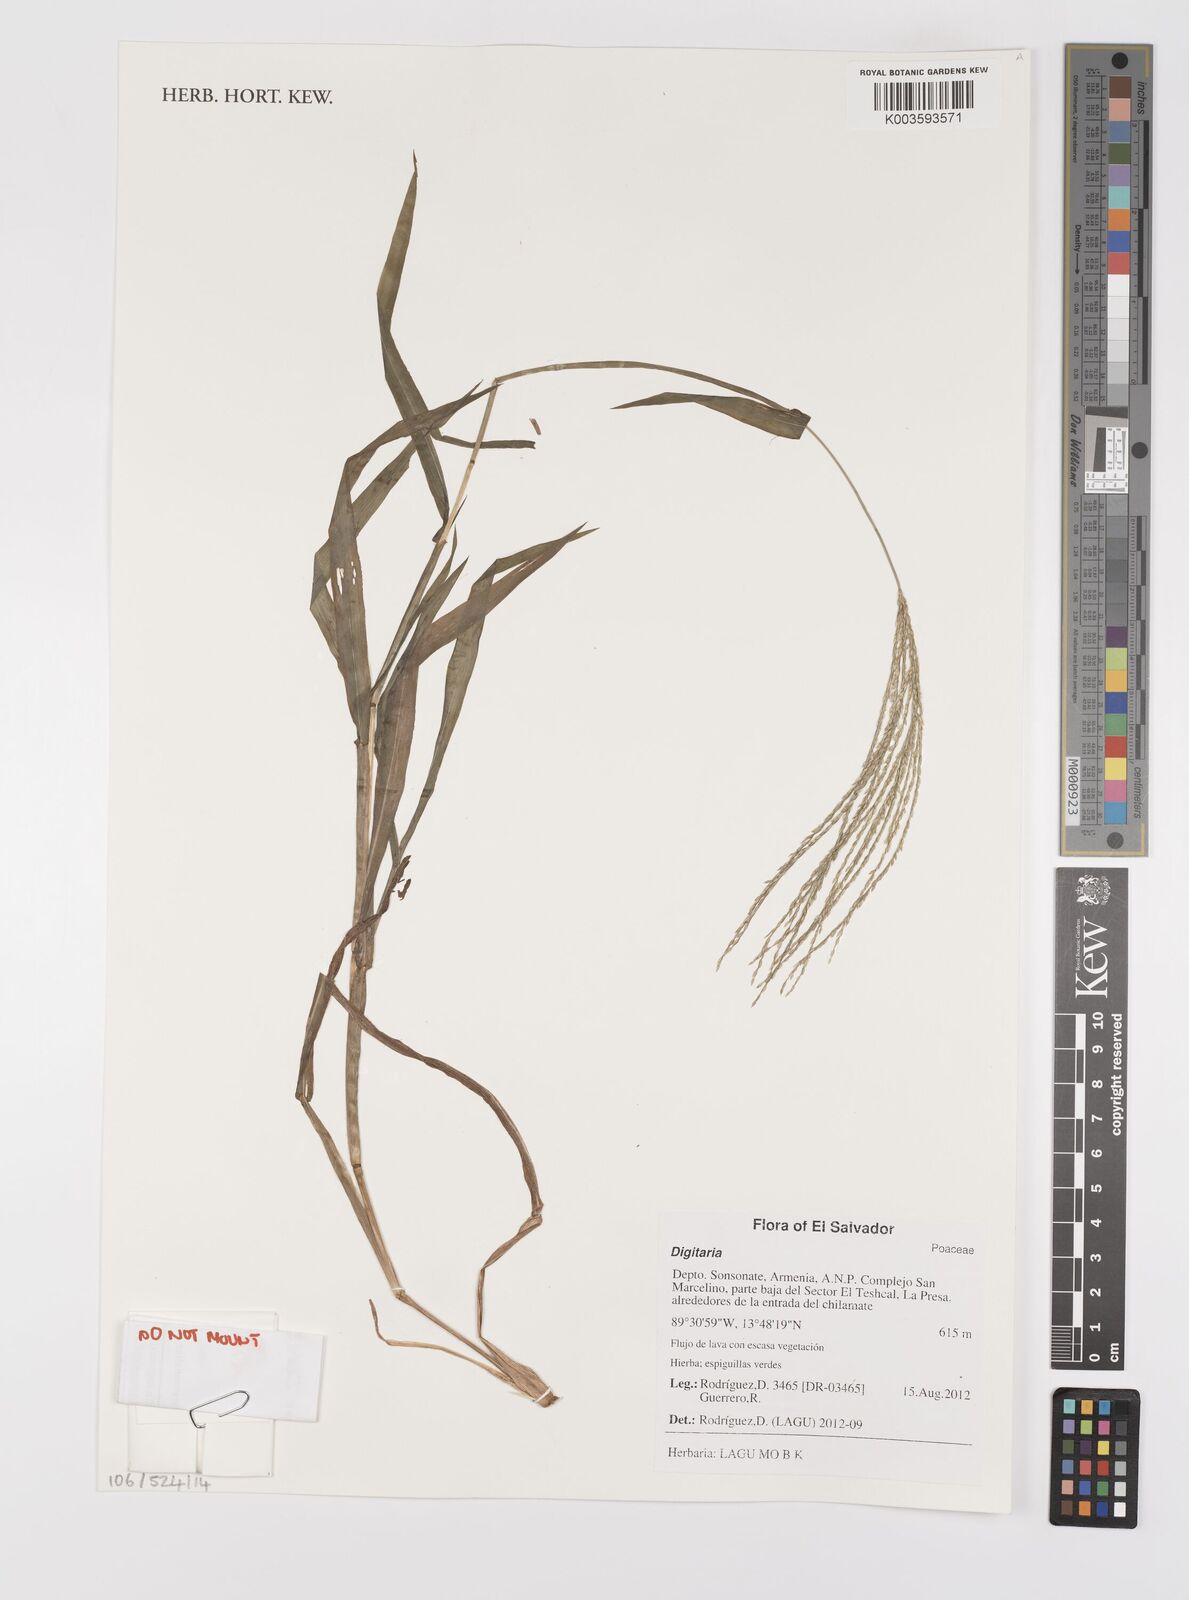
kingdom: Plantae
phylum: Tracheophyta
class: Liliopsida
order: Poales
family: Poaceae
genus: Digitaria
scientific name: Digitaria spec
